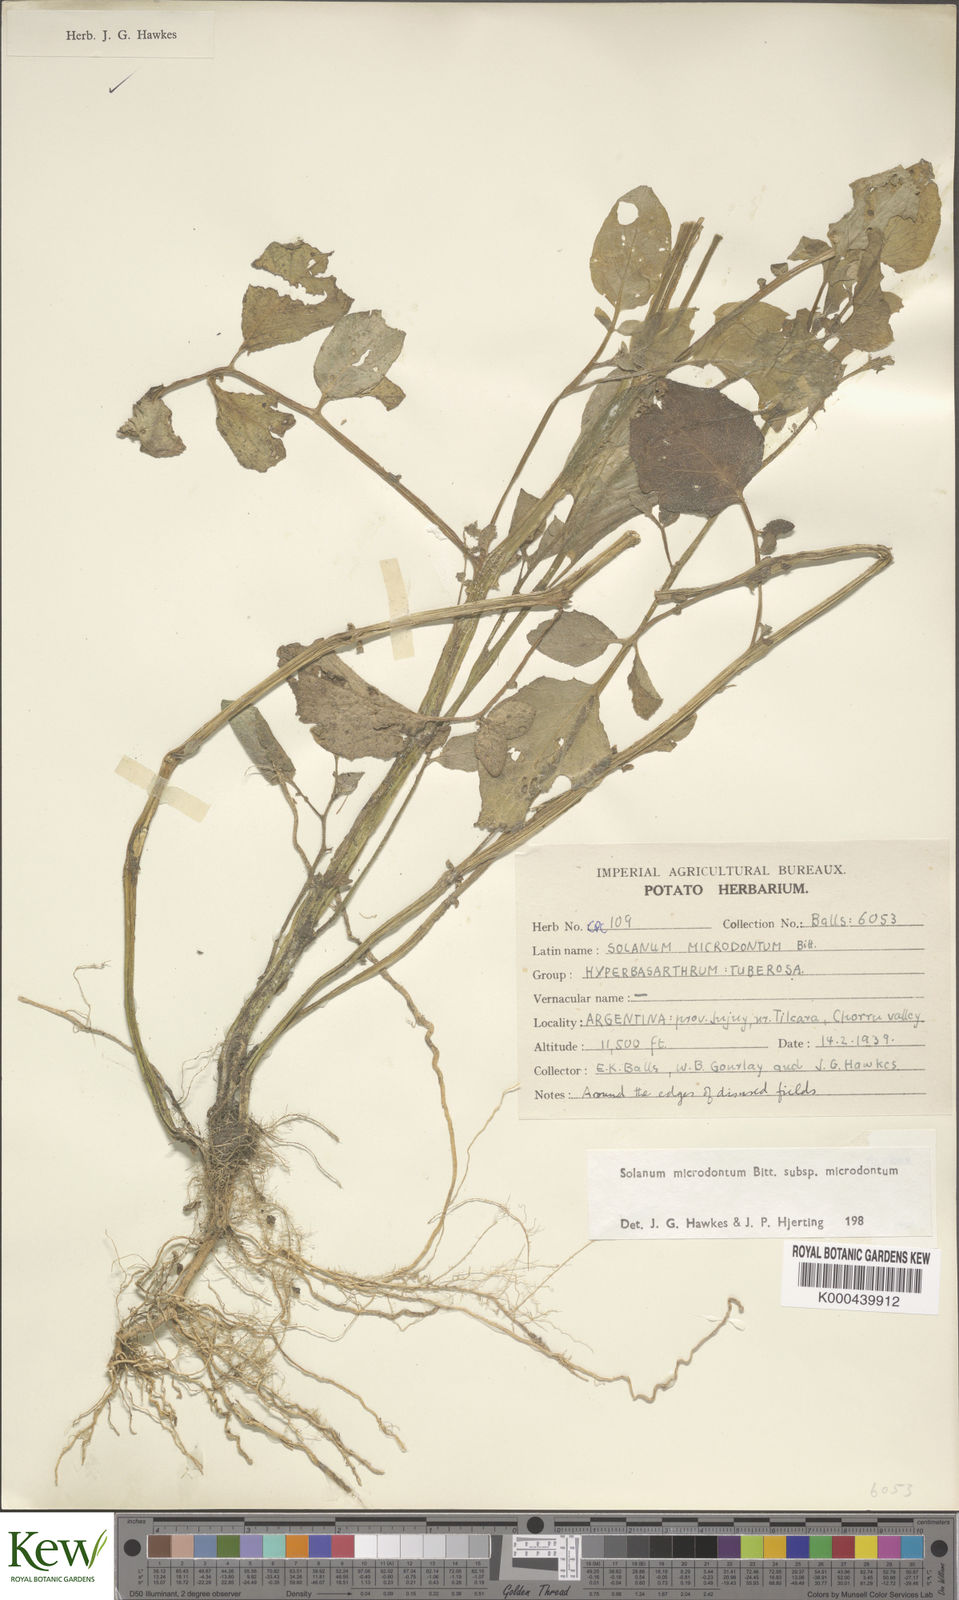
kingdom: Plantae
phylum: Tracheophyta
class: Magnoliopsida
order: Solanales
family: Solanaceae
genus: Solanum
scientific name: Solanum microdontum
